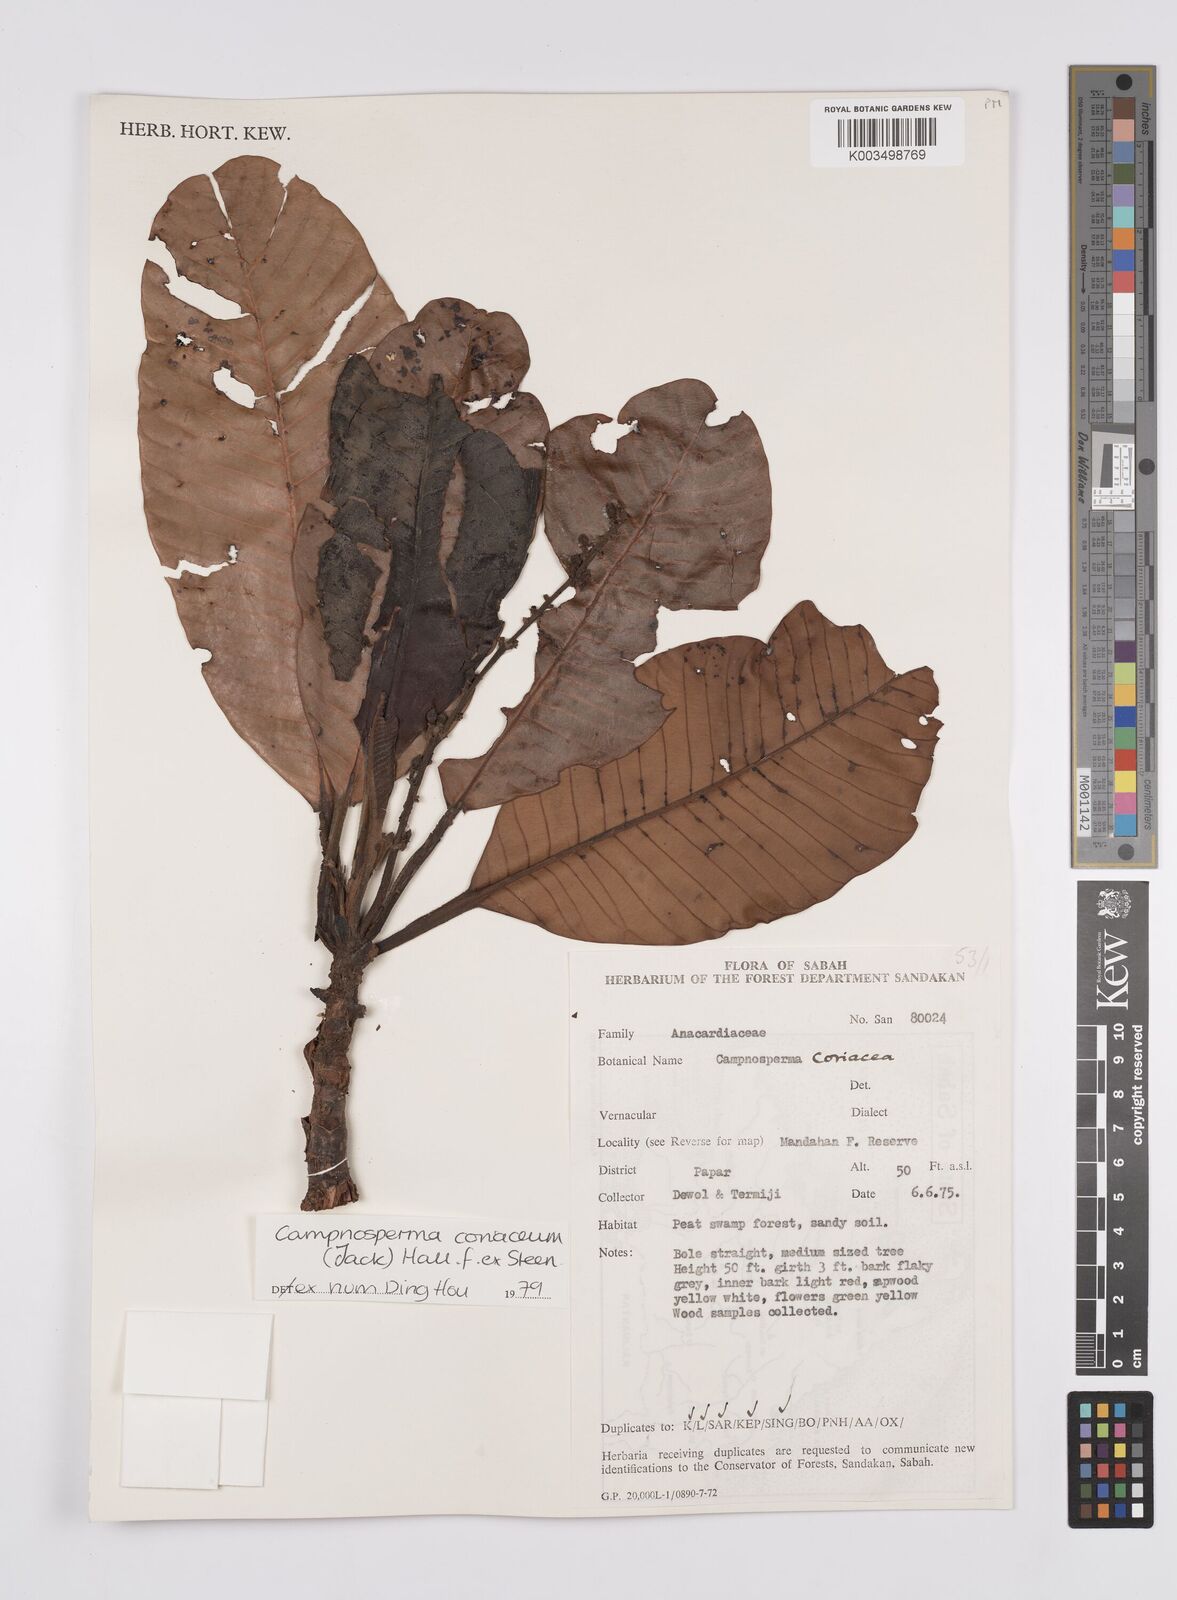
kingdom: Plantae
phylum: Tracheophyta
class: Magnoliopsida
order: Sapindales
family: Anacardiaceae
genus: Campnosperma
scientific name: Campnosperma coriaceum
